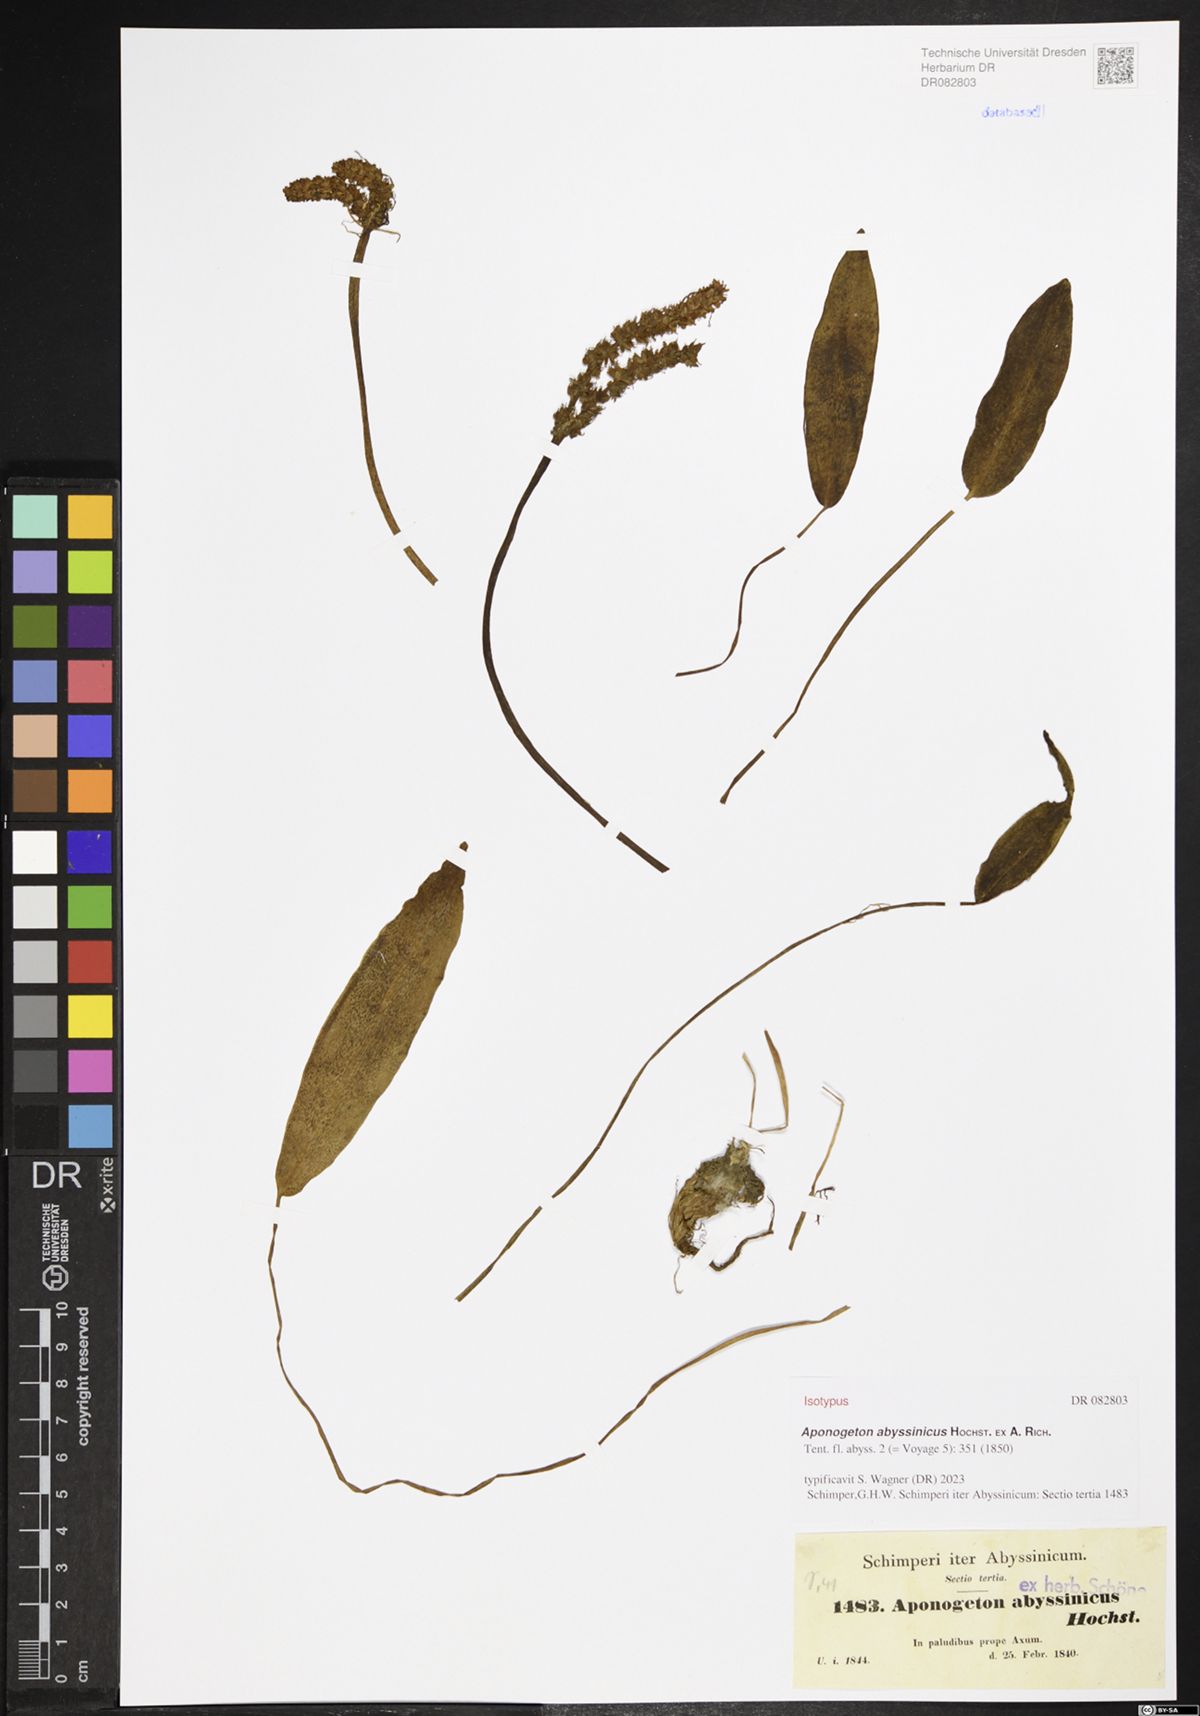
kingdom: Plantae
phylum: Tracheophyta
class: Liliopsida
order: Alismatales
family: Aponogetonaceae
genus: Aponogeton
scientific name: Aponogeton abyssinicus
